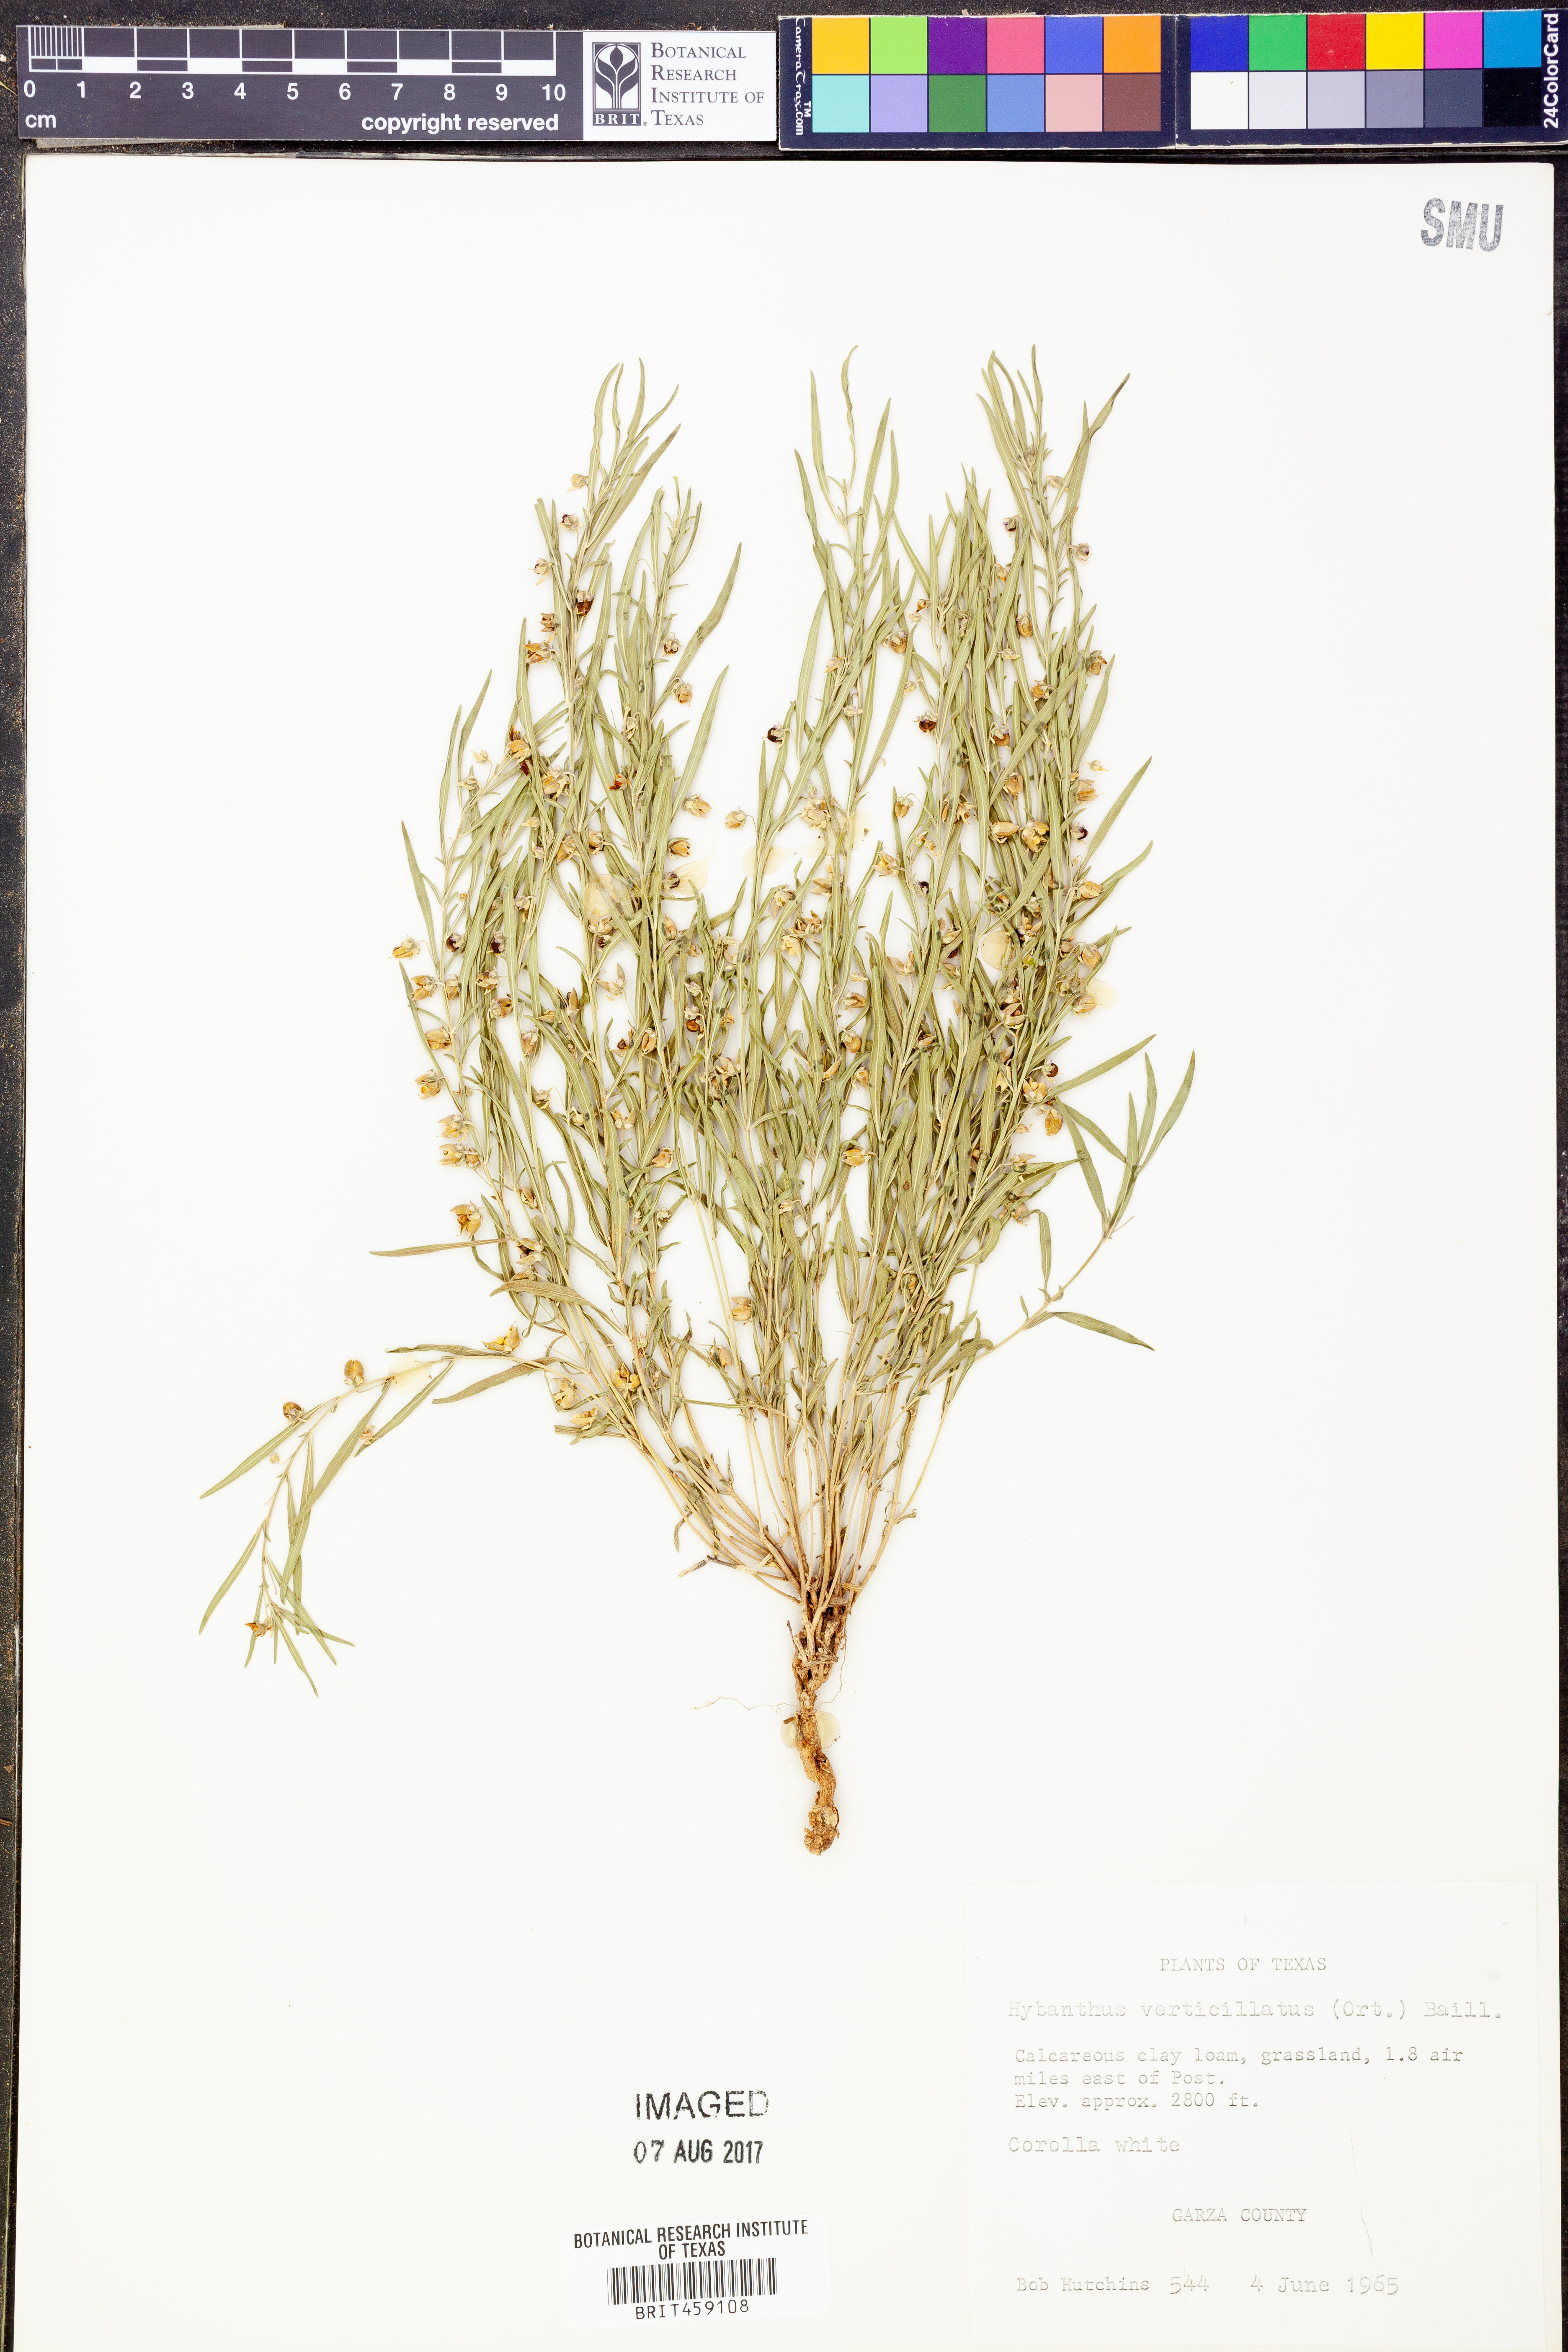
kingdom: Plantae
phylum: Tracheophyta
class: Magnoliopsida
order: Malpighiales
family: Violaceae
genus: Pombalia
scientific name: Pombalia verticillata
